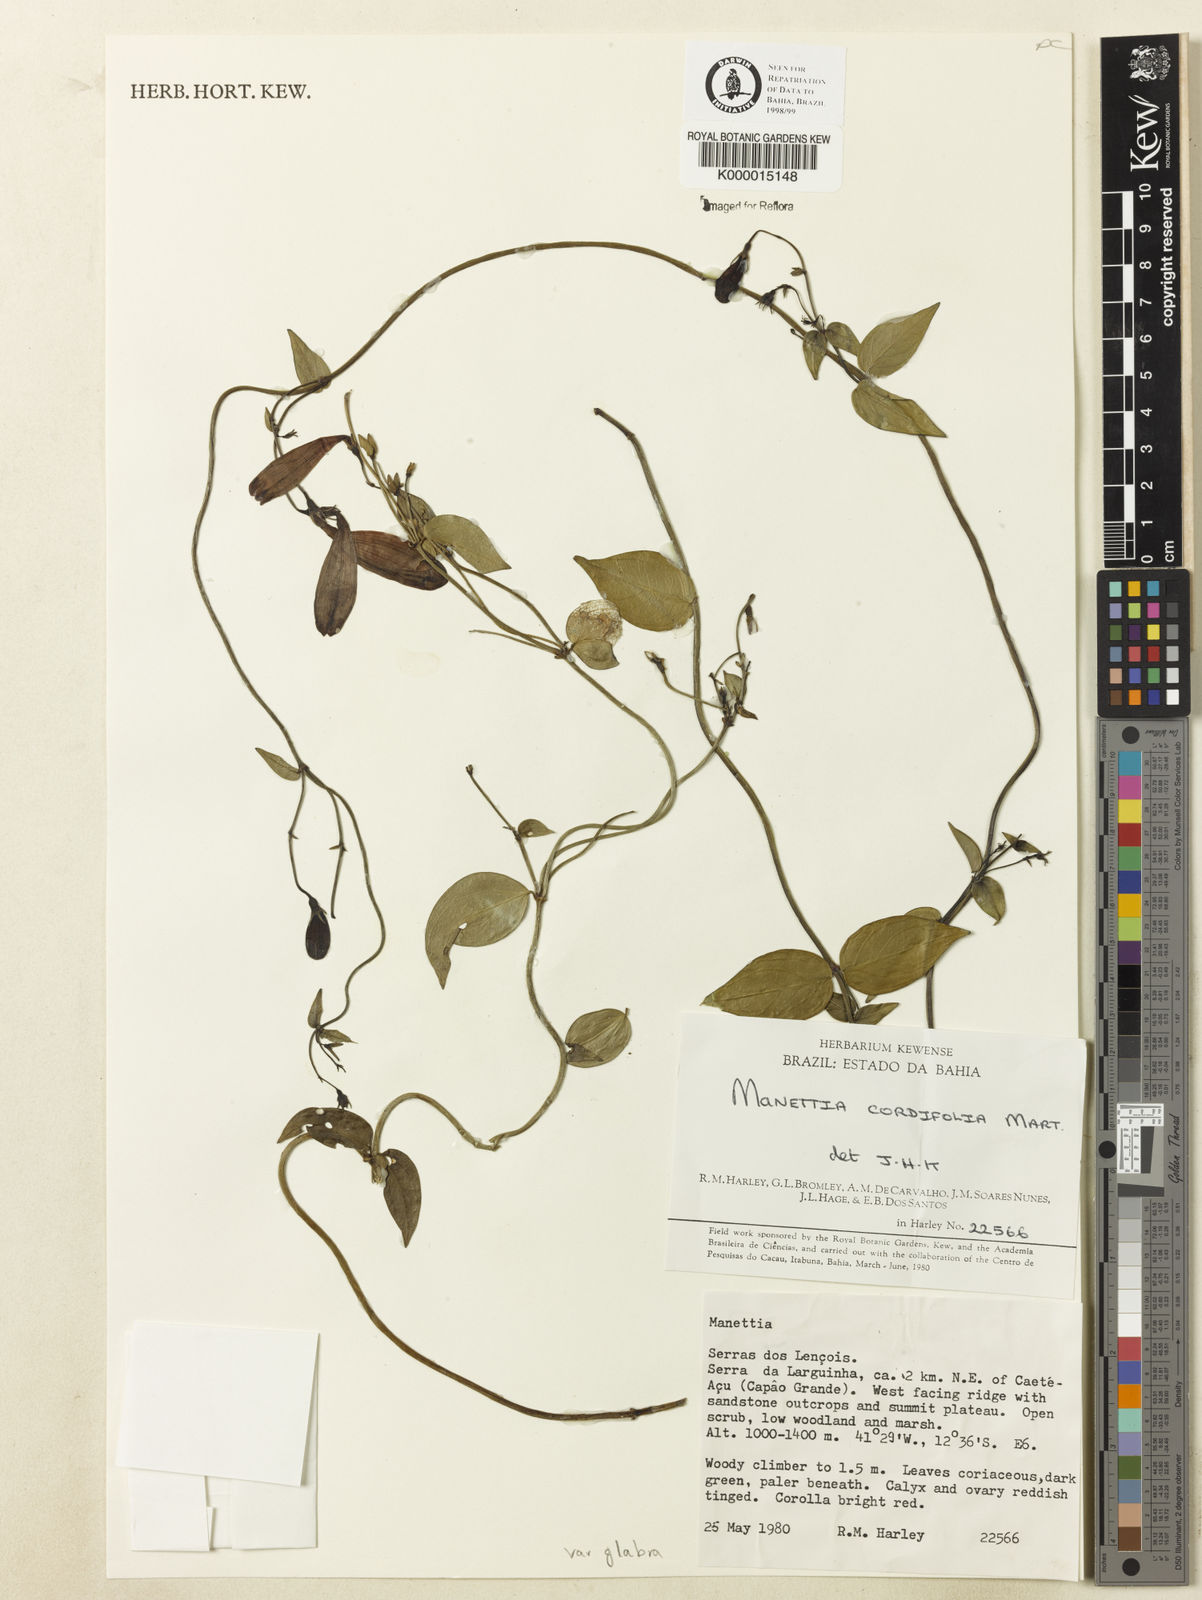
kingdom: Plantae
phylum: Tracheophyta
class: Magnoliopsida
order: Gentianales
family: Rubiaceae
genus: Manettia
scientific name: Manettia cordifolia
